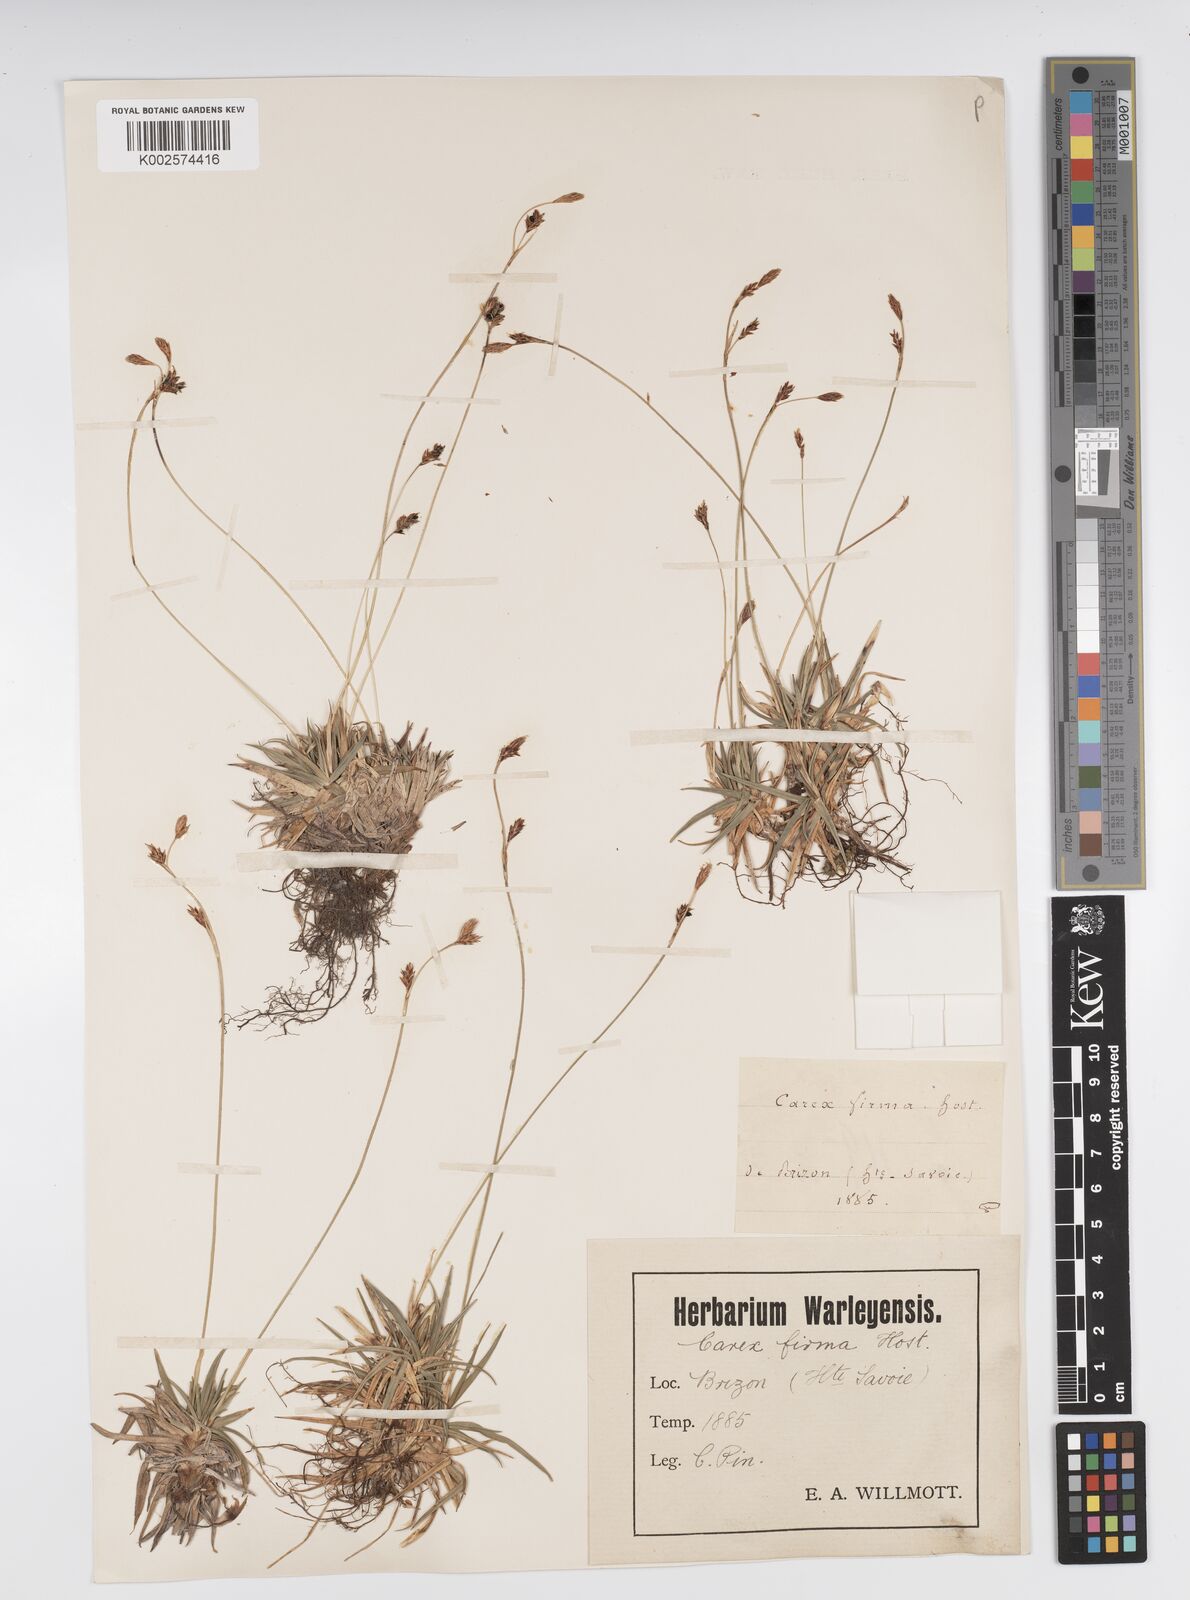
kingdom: Plantae
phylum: Tracheophyta
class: Liliopsida
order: Poales
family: Cyperaceae
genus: Carex
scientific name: Carex firma
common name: Dwarf pillow sedge
